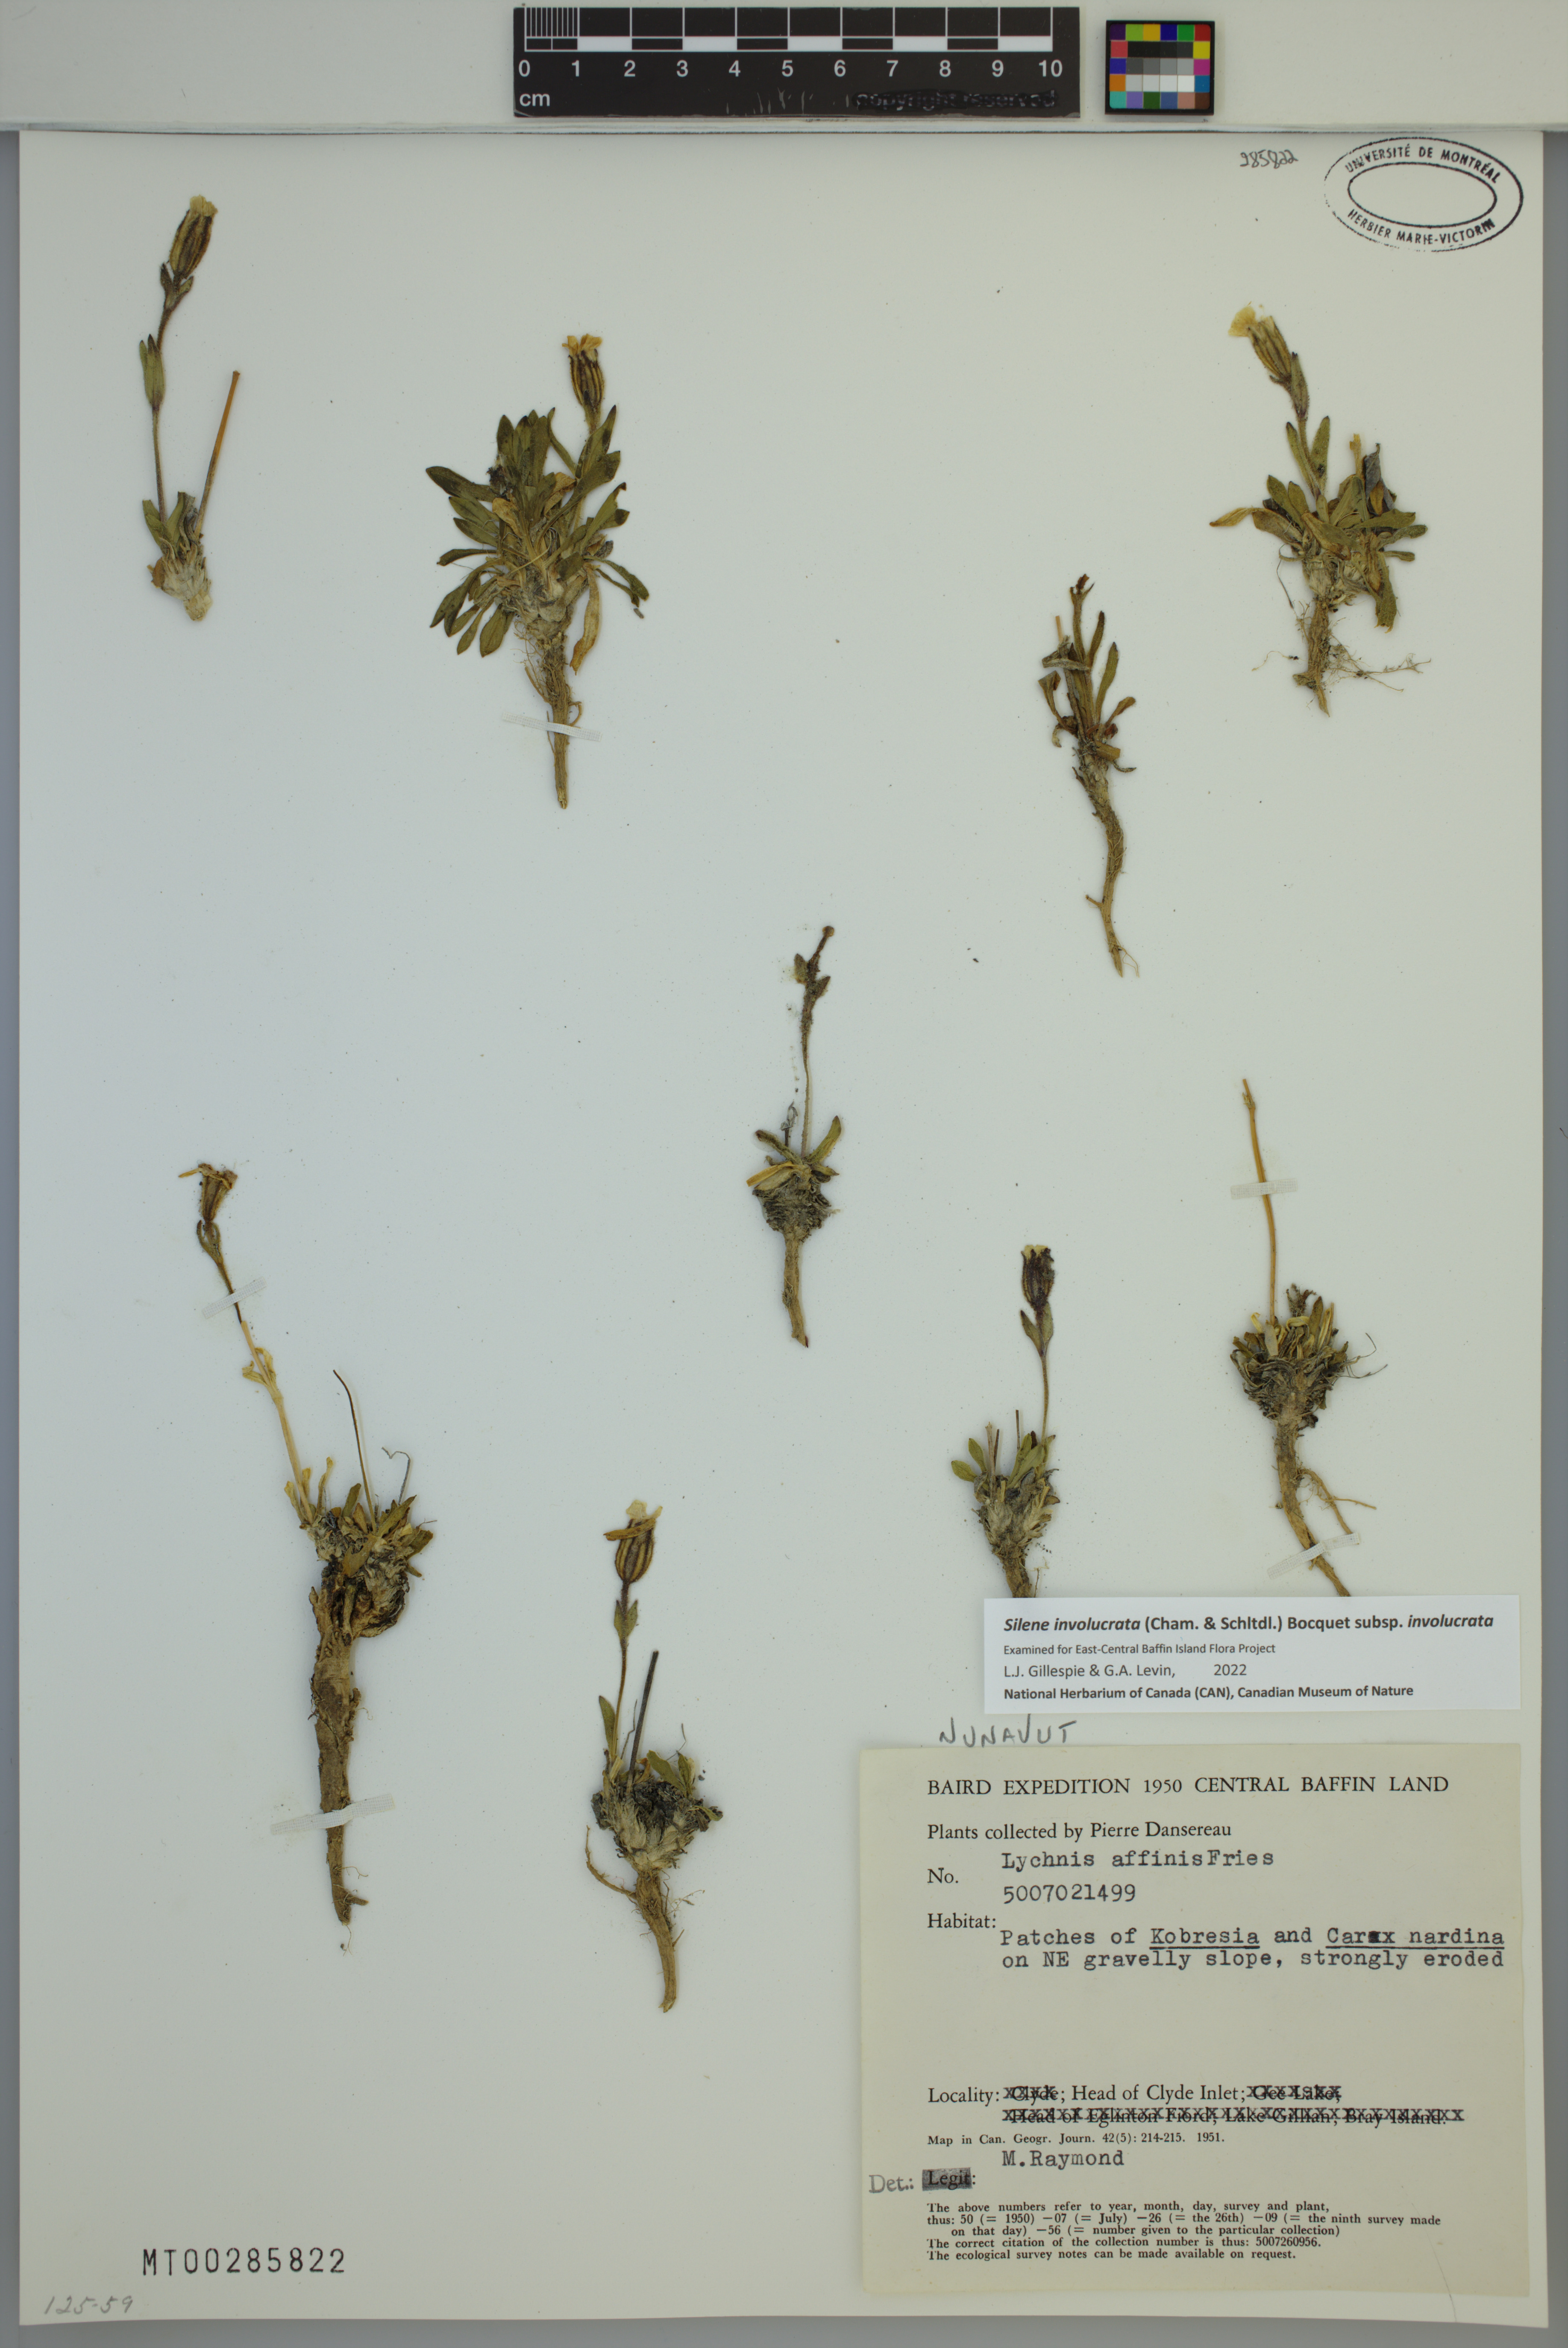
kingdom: Plantae
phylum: Tracheophyta
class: Magnoliopsida
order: Caryophyllales
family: Caryophyllaceae
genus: Silene
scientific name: Silene involucrata
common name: Greater arctic campion
